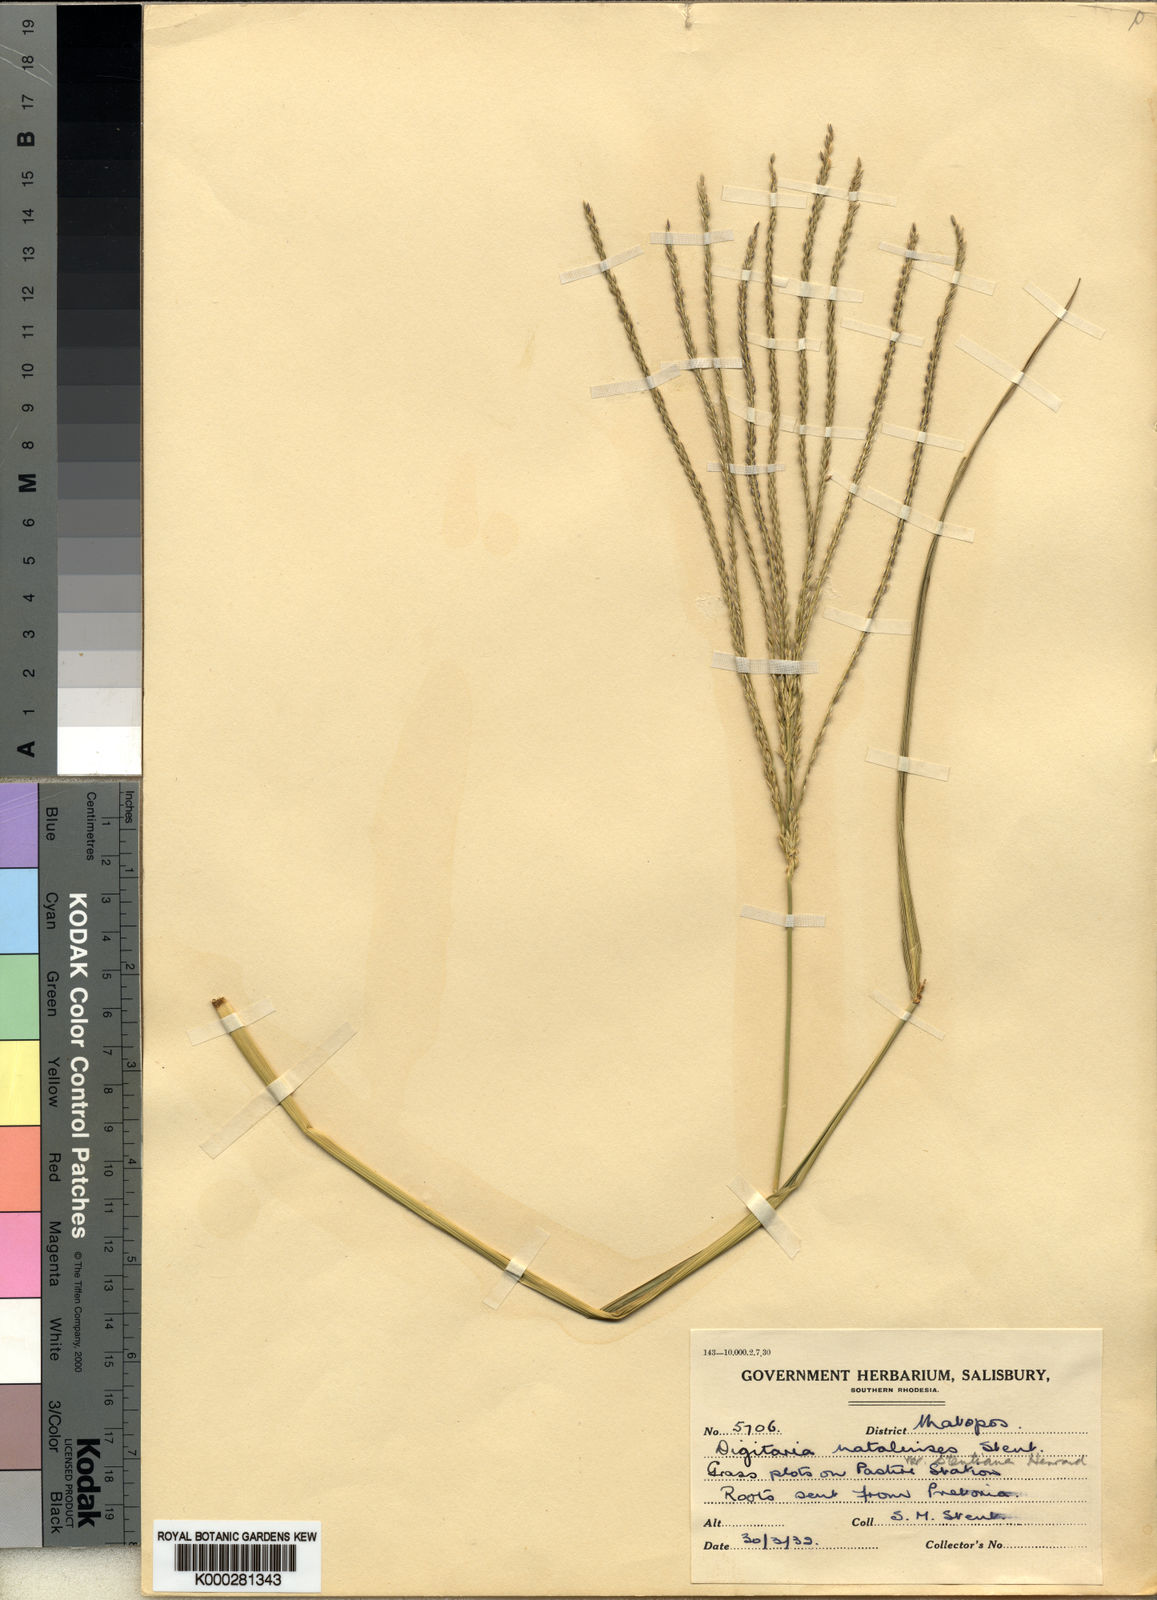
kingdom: Plantae
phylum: Tracheophyta
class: Liliopsida
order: Poales
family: Poaceae
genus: Digitaria
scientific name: Digitaria natalensis
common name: Coast finger grass
